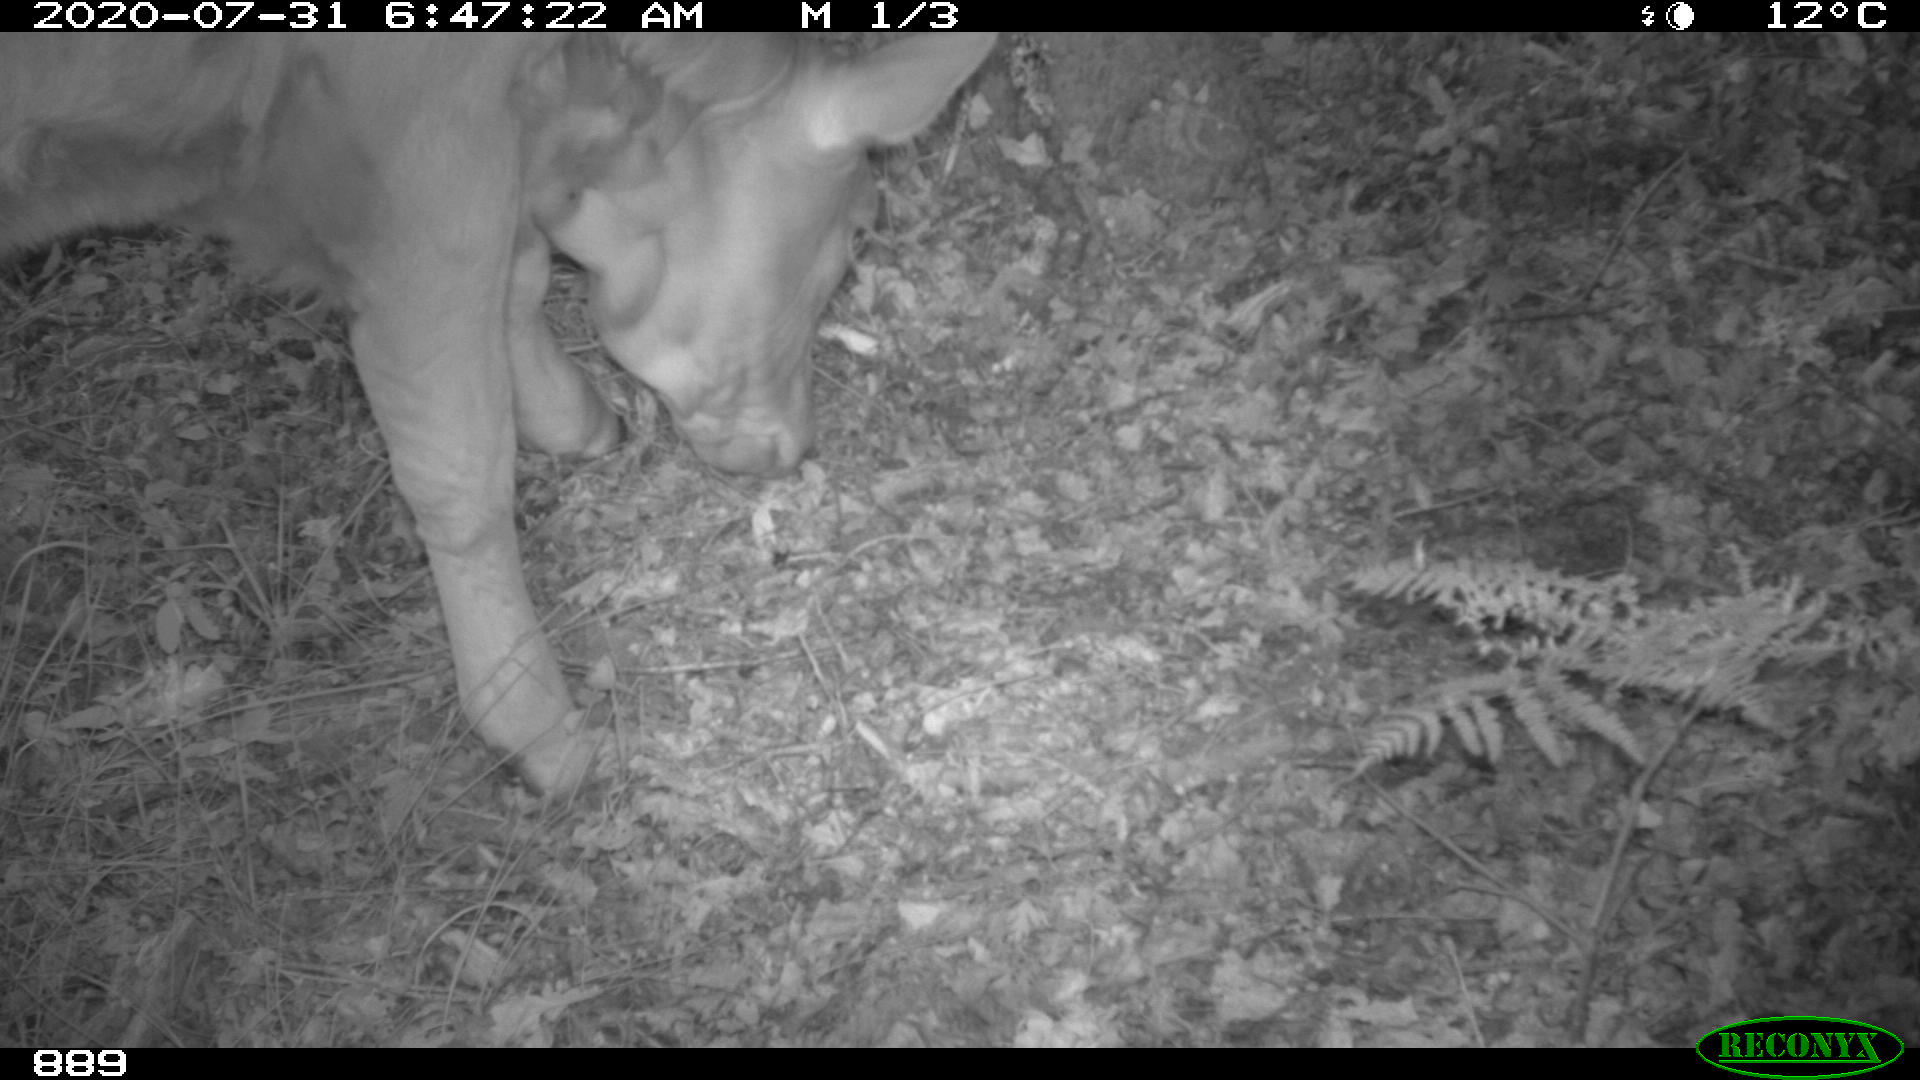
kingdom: Animalia
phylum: Chordata
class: Mammalia
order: Artiodactyla
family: Bovidae
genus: Bos
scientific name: Bos taurus
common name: Domesticated cattle
